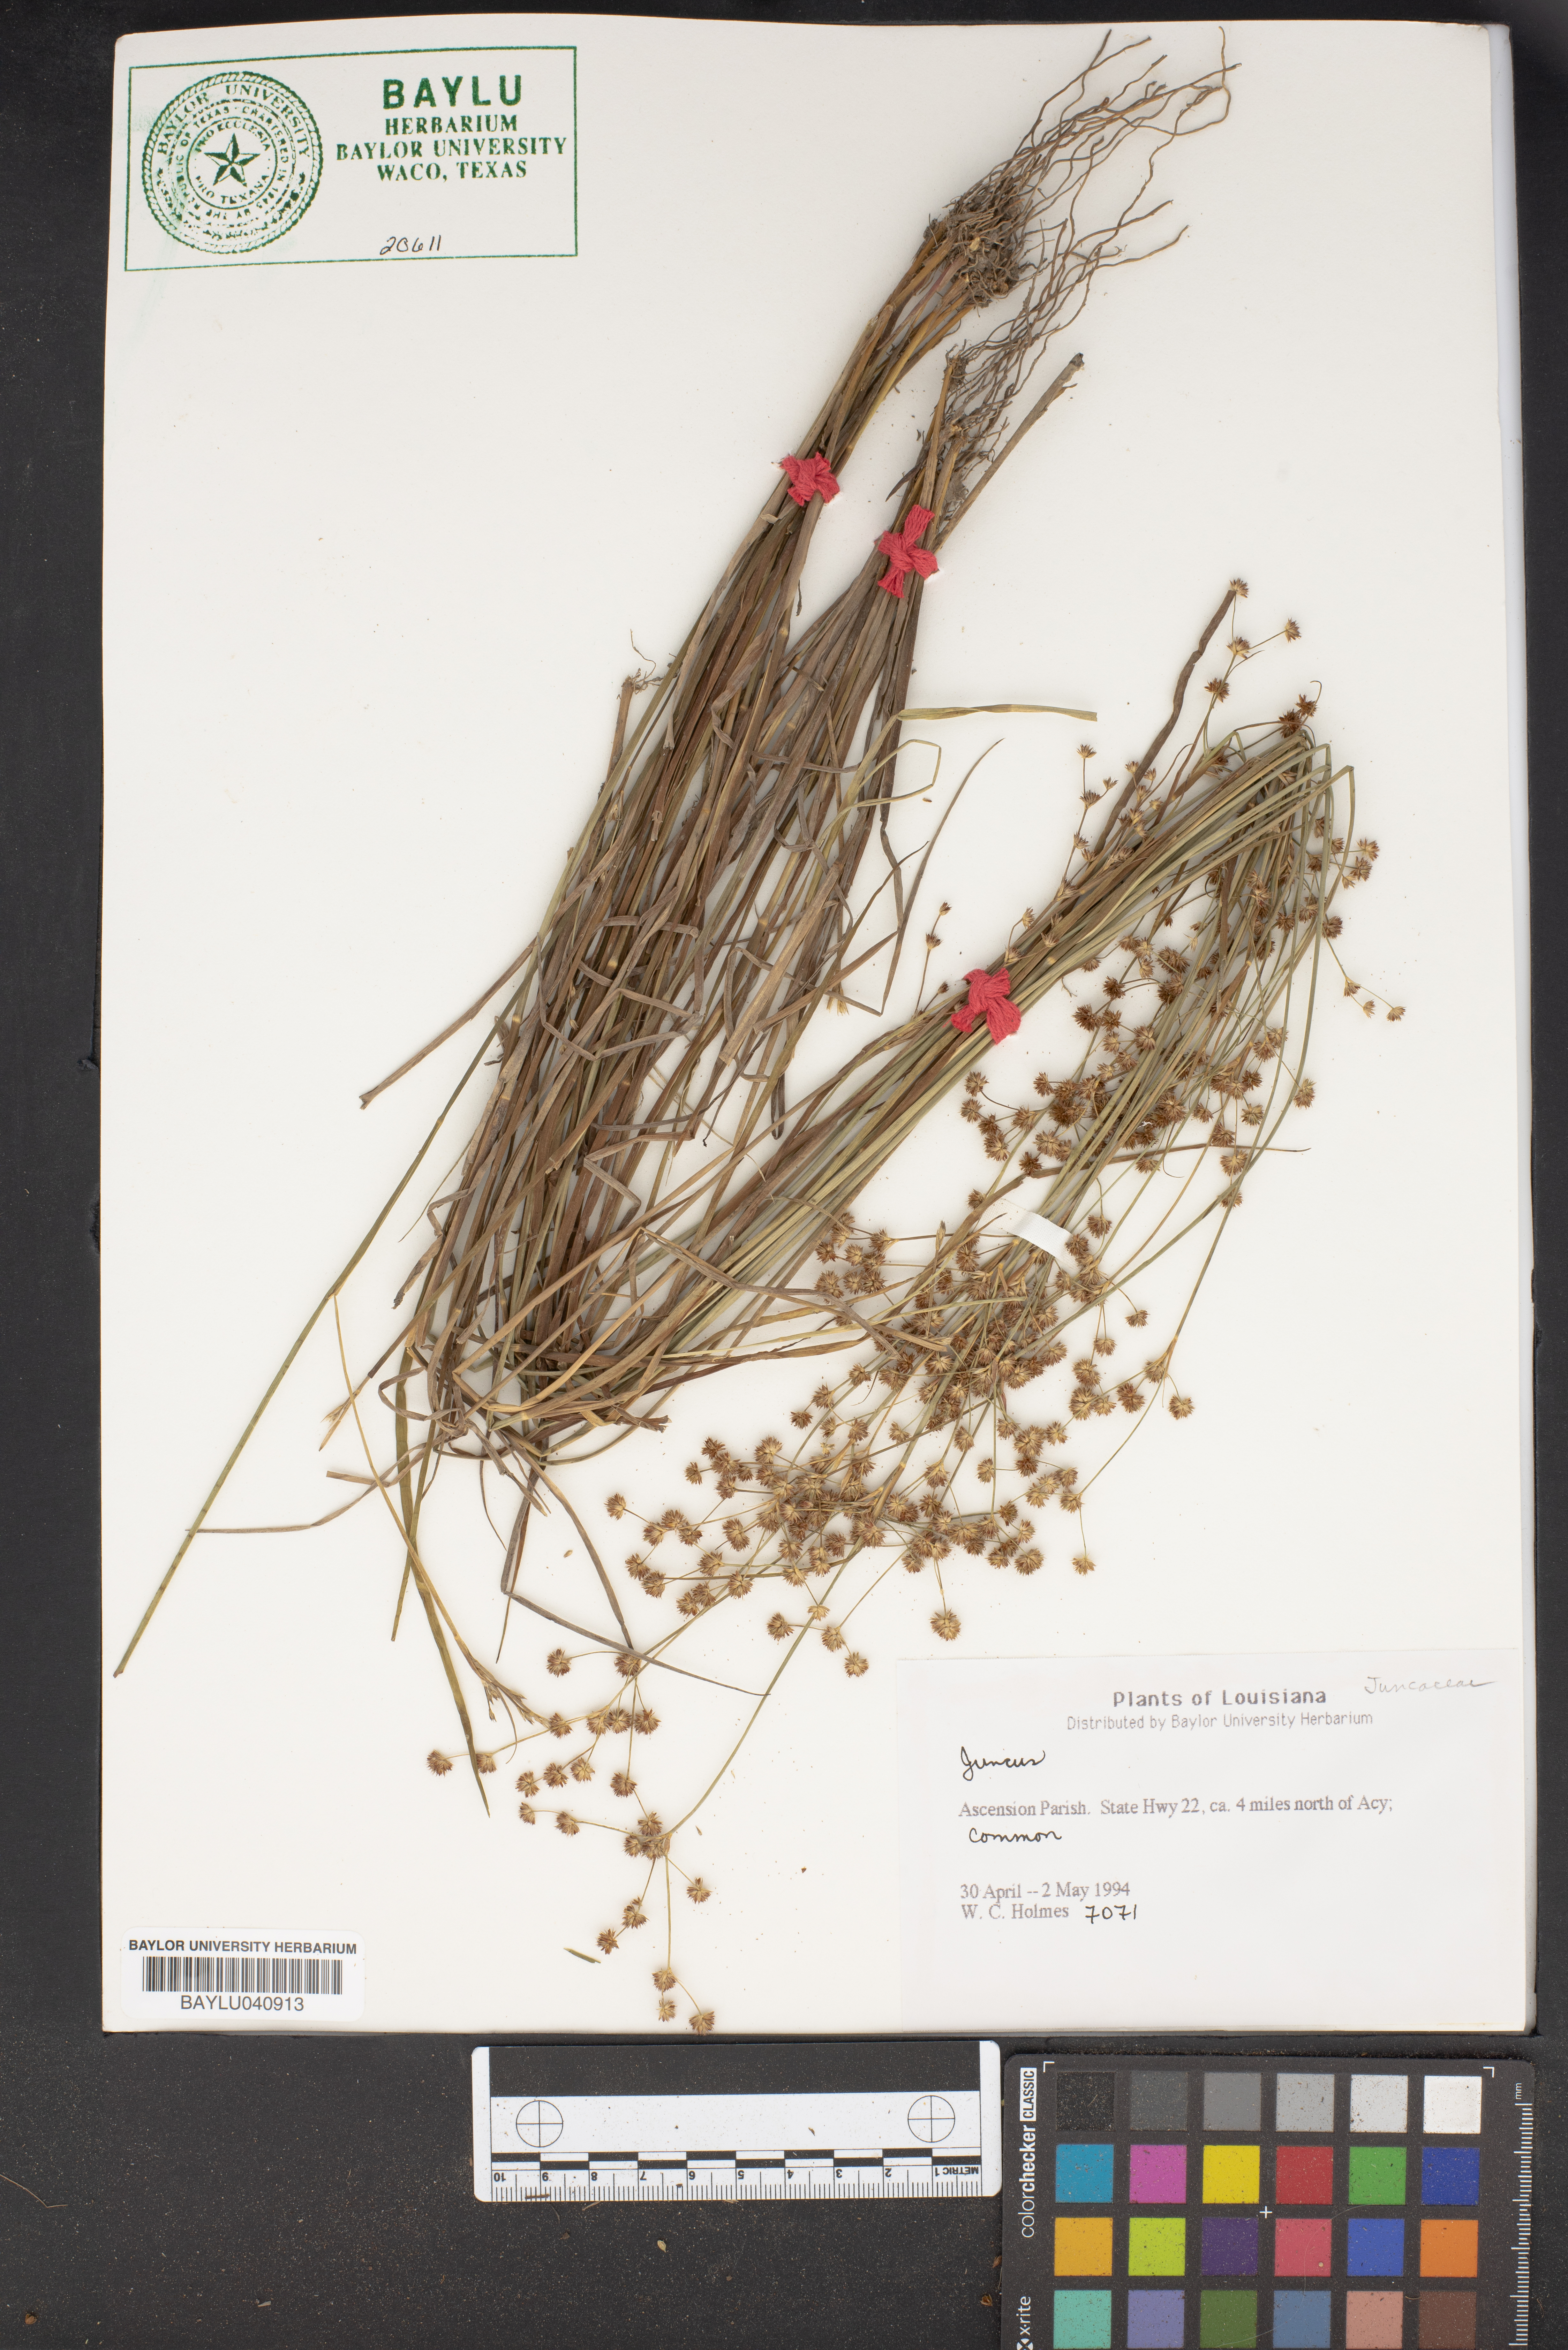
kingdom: Plantae
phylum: Tracheophyta
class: Liliopsida
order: Poales
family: Juncaceae
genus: Juncus
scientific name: Juncus
